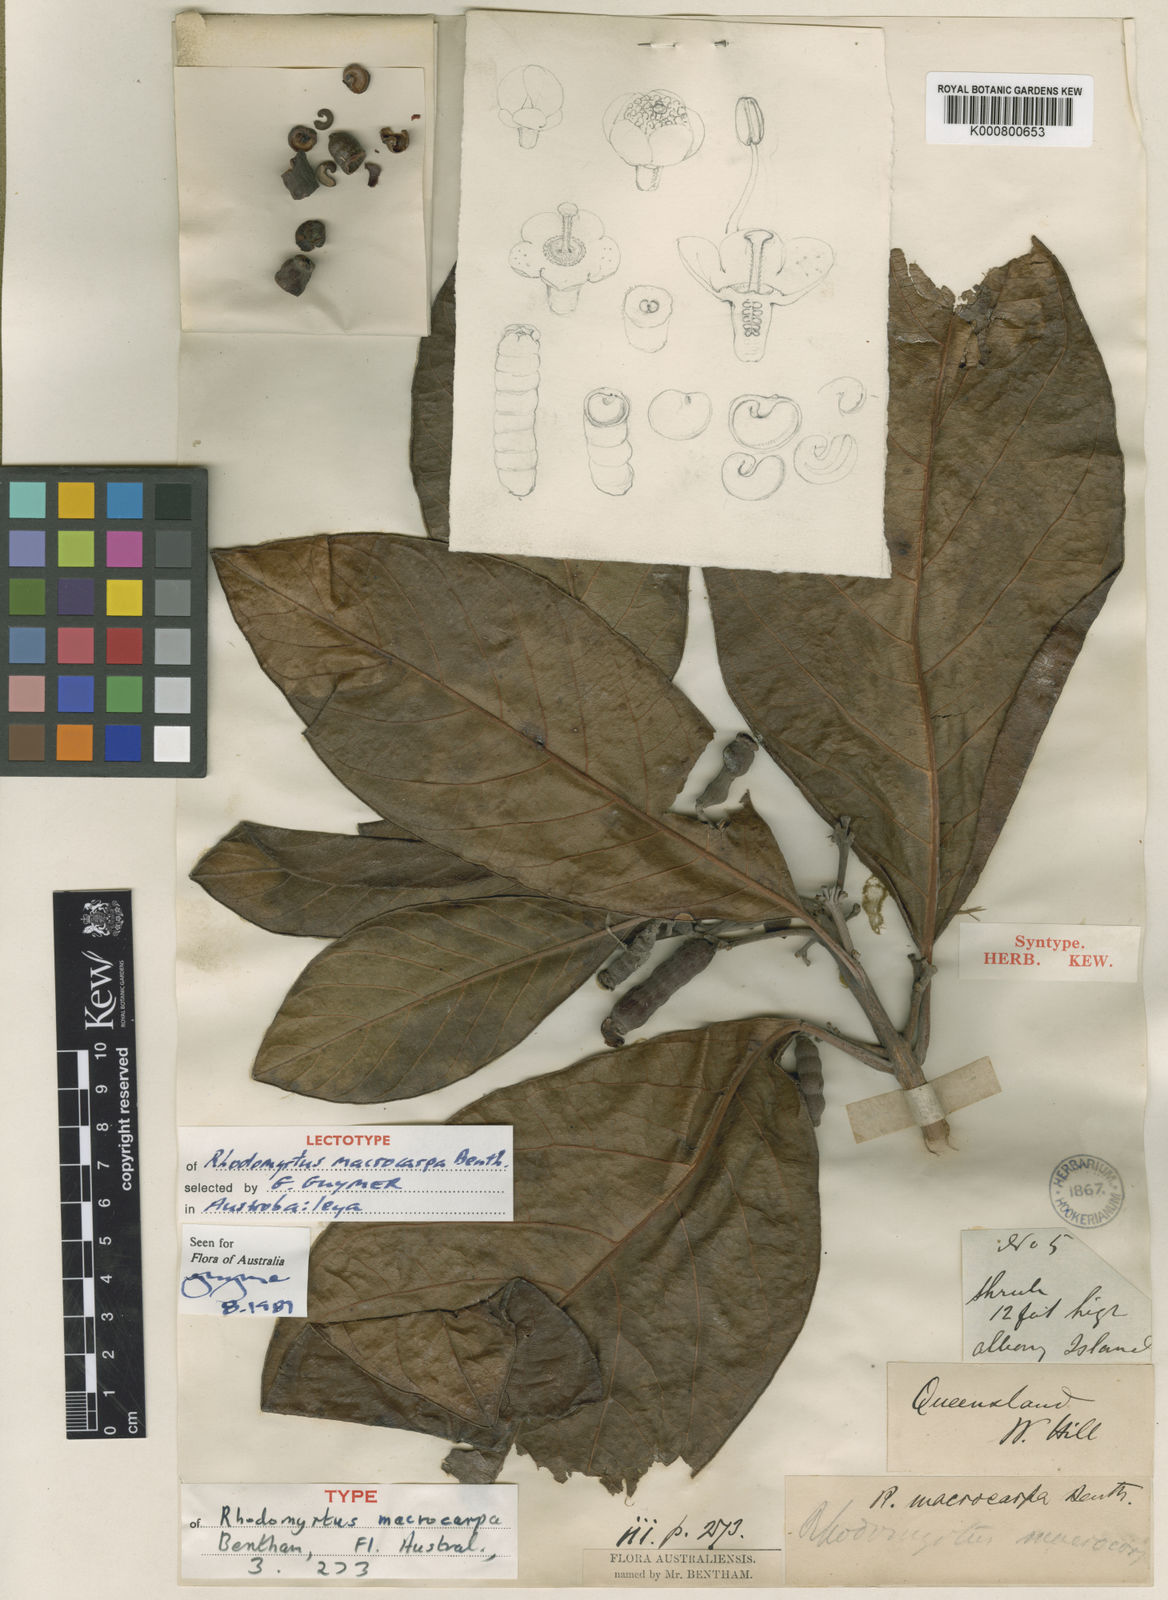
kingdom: Plantae
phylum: Tracheophyta
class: Magnoliopsida
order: Myrtales
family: Myrtaceae
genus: Rhodomyrtus
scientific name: Rhodomyrtus macrocarpa
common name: Finger-cherry
